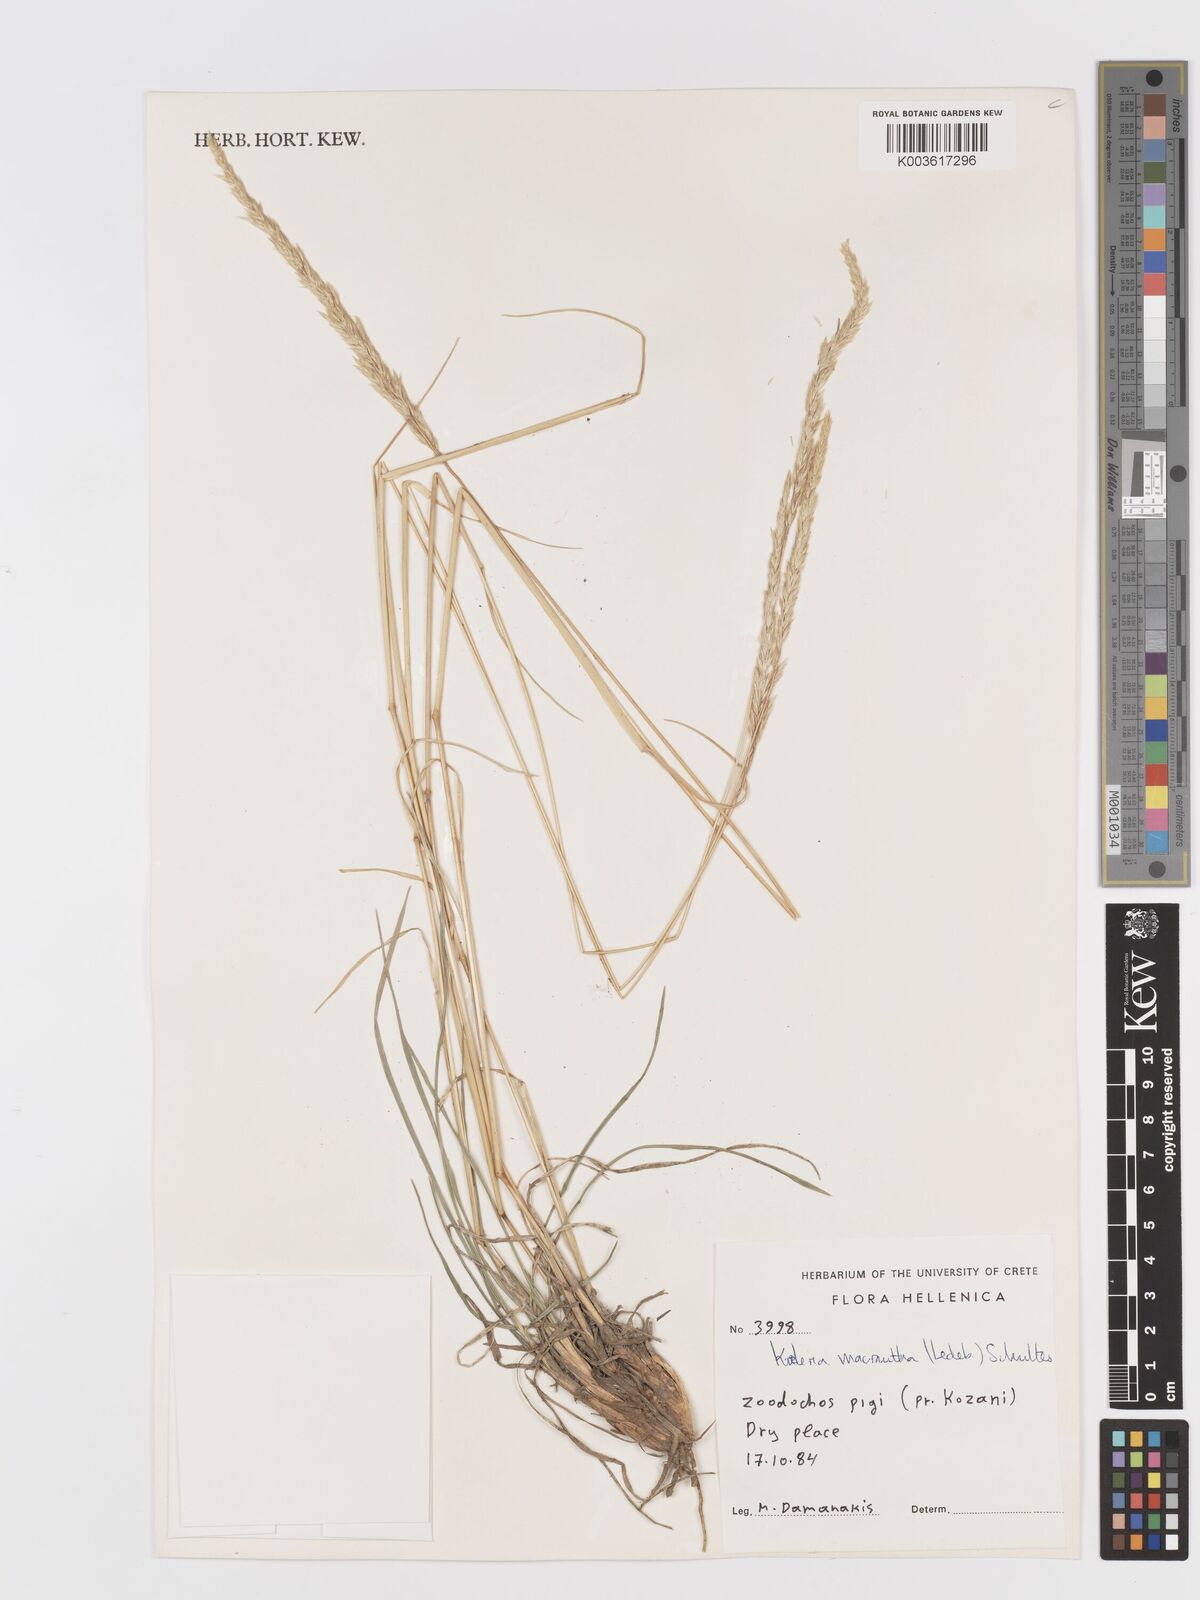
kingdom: Plantae
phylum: Tracheophyta
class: Liliopsida
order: Poales
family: Poaceae
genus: Koeleria
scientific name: Koeleria macrantha
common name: Crested hair-grass
